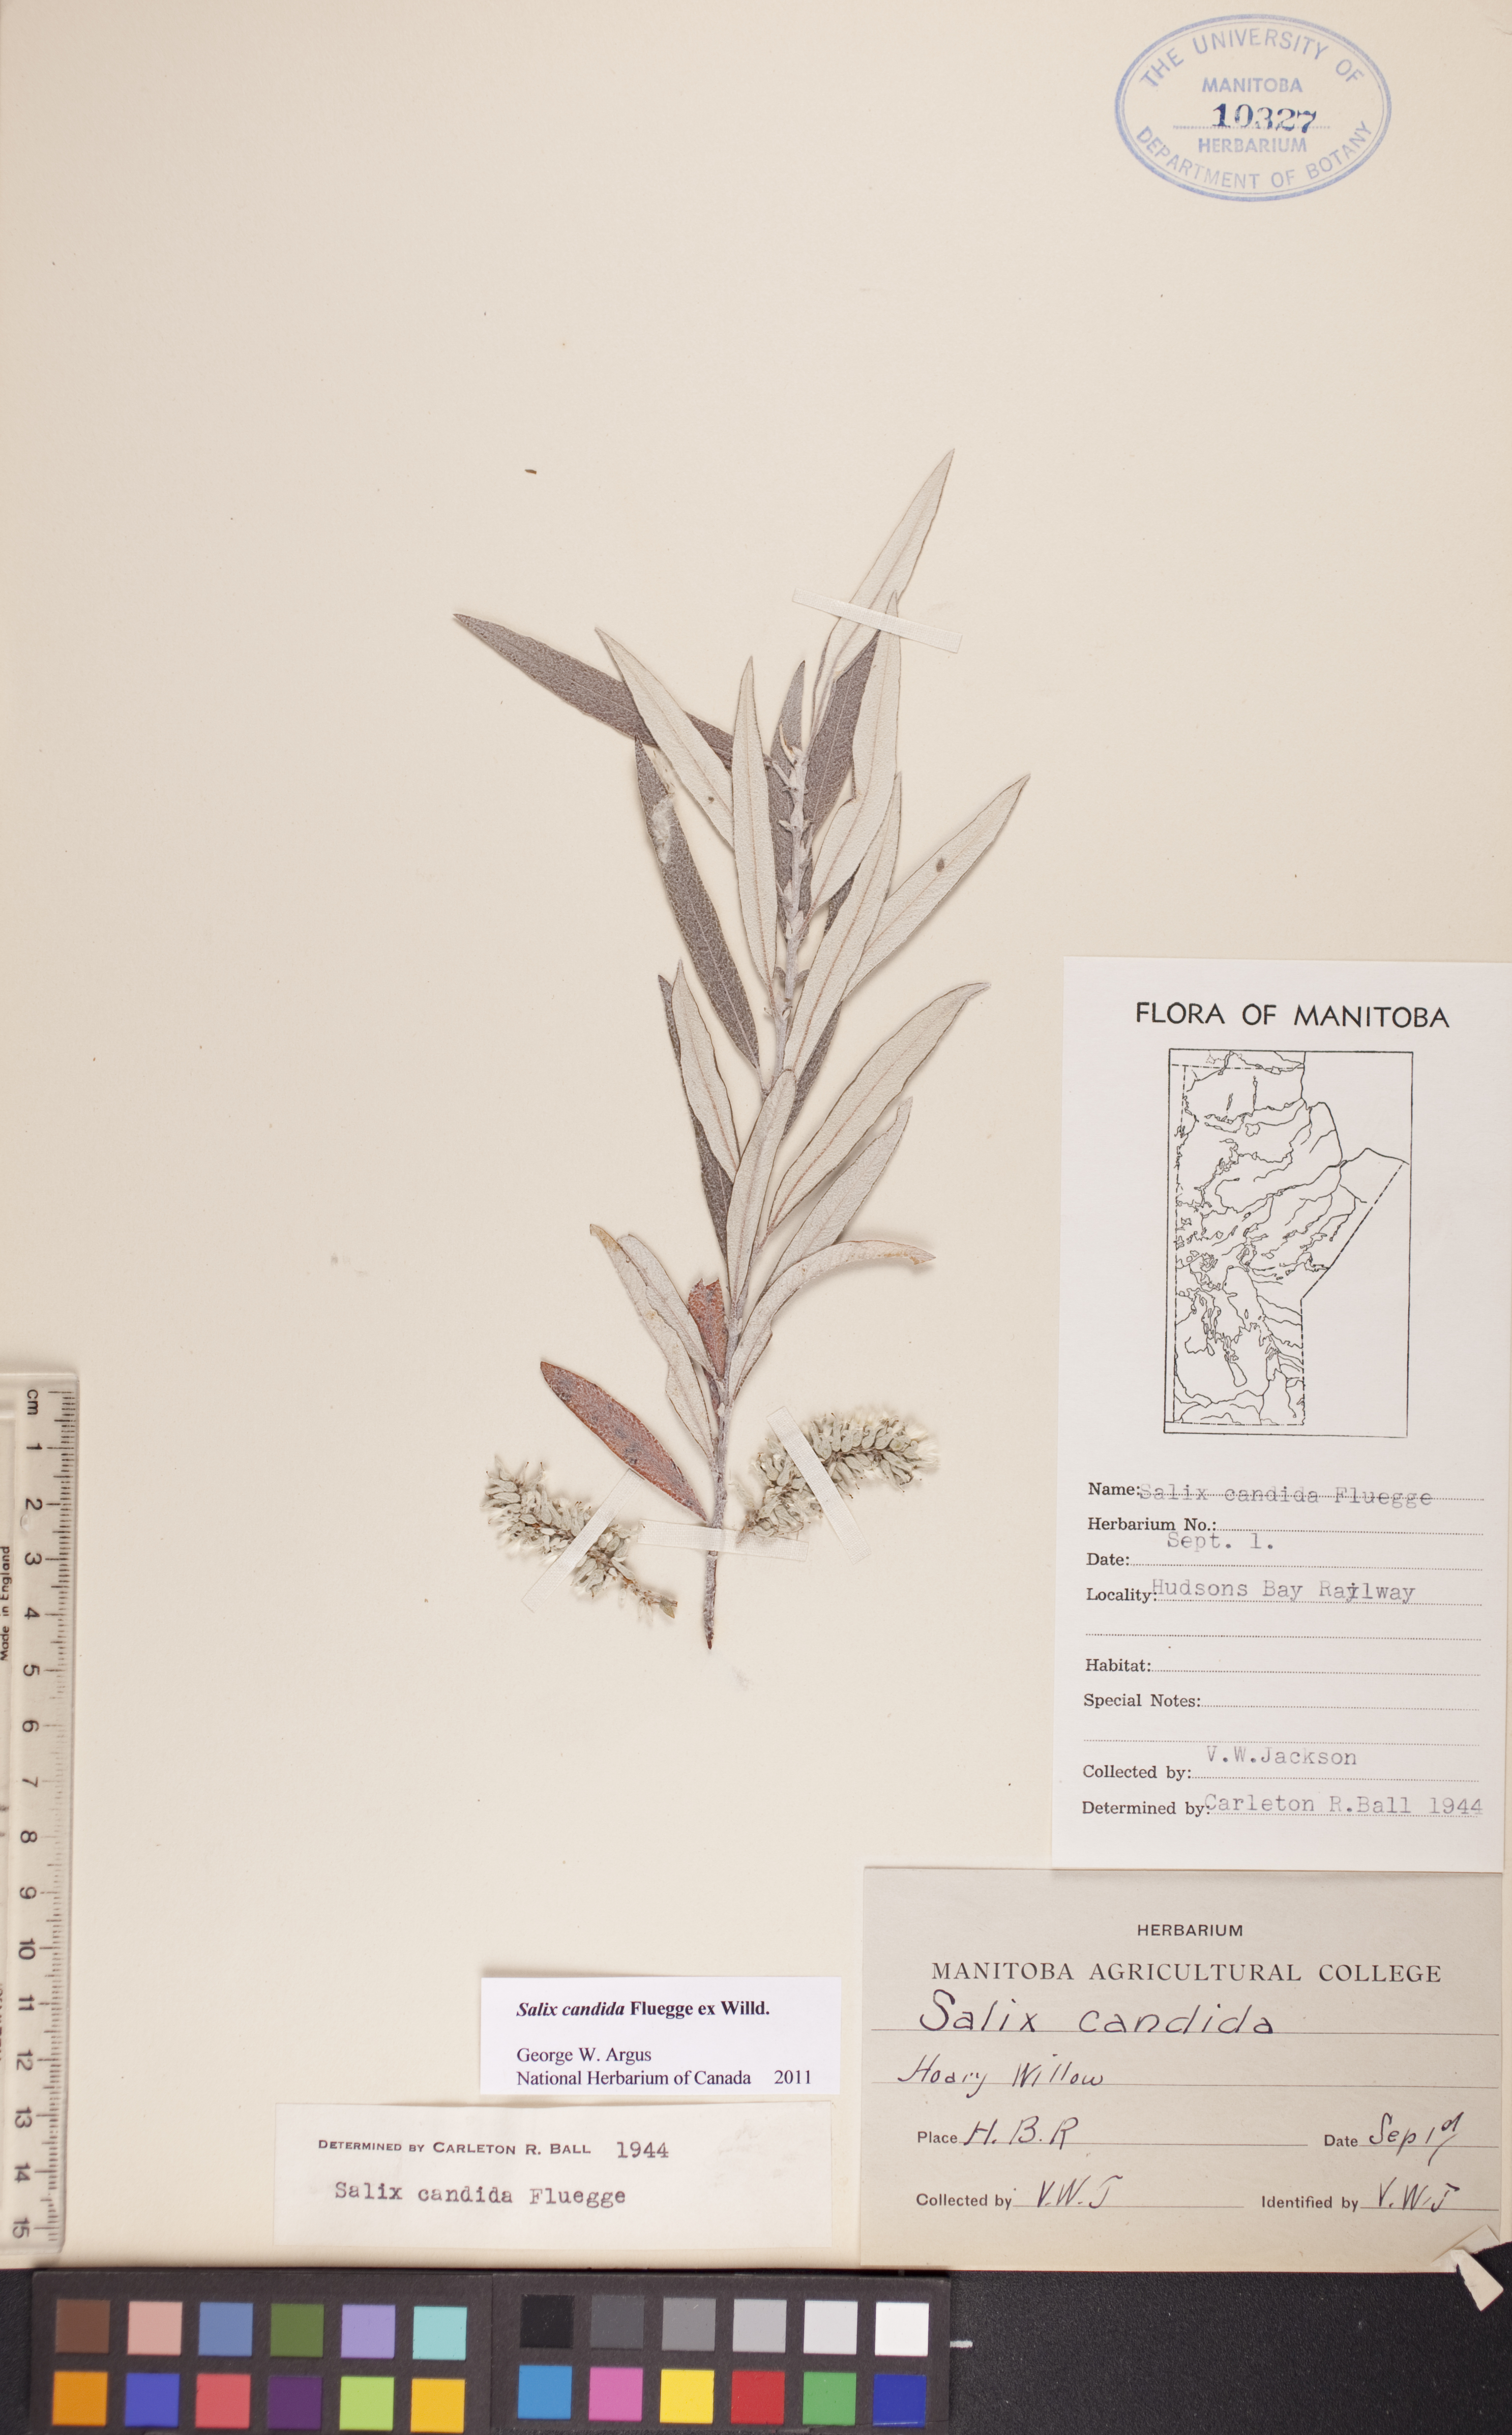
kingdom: Plantae
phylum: Tracheophyta
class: Magnoliopsida
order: Malpighiales
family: Salicaceae
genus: Salix
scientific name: Salix candida
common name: Hoary willow
